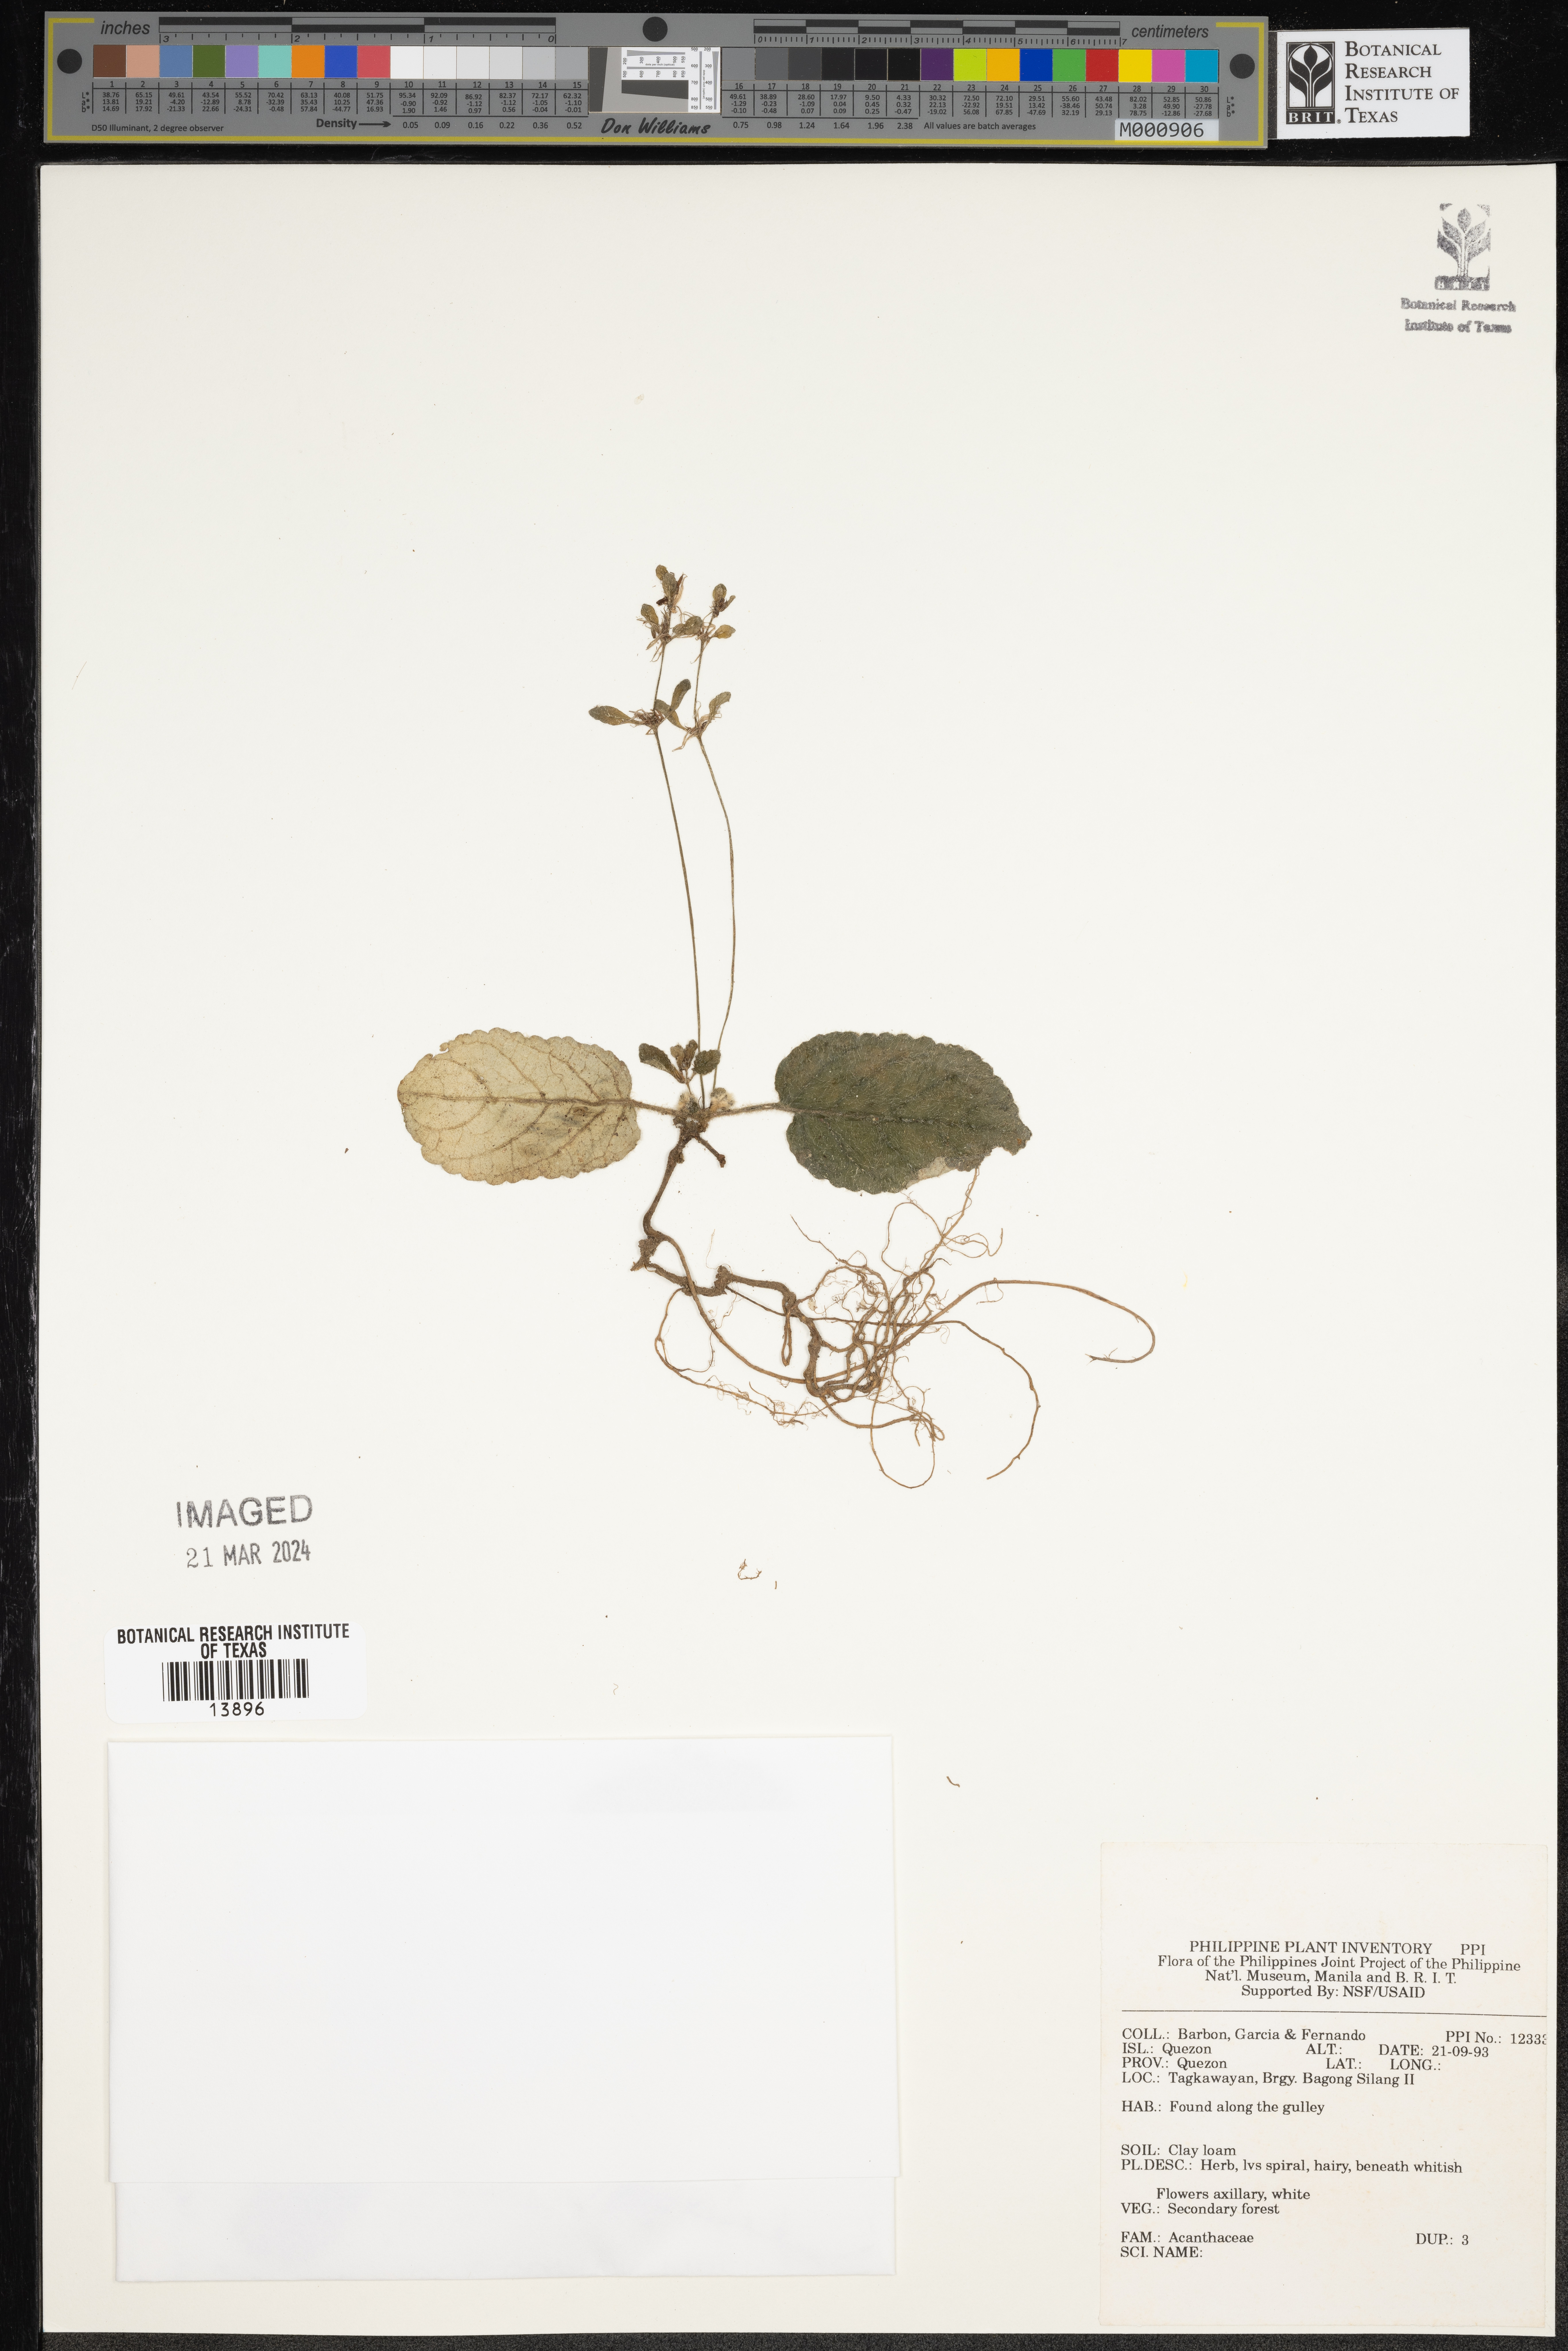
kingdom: Plantae
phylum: Tracheophyta
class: Magnoliopsida
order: Lamiales
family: Acanthaceae
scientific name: Acanthaceae
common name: Acanthaceae
